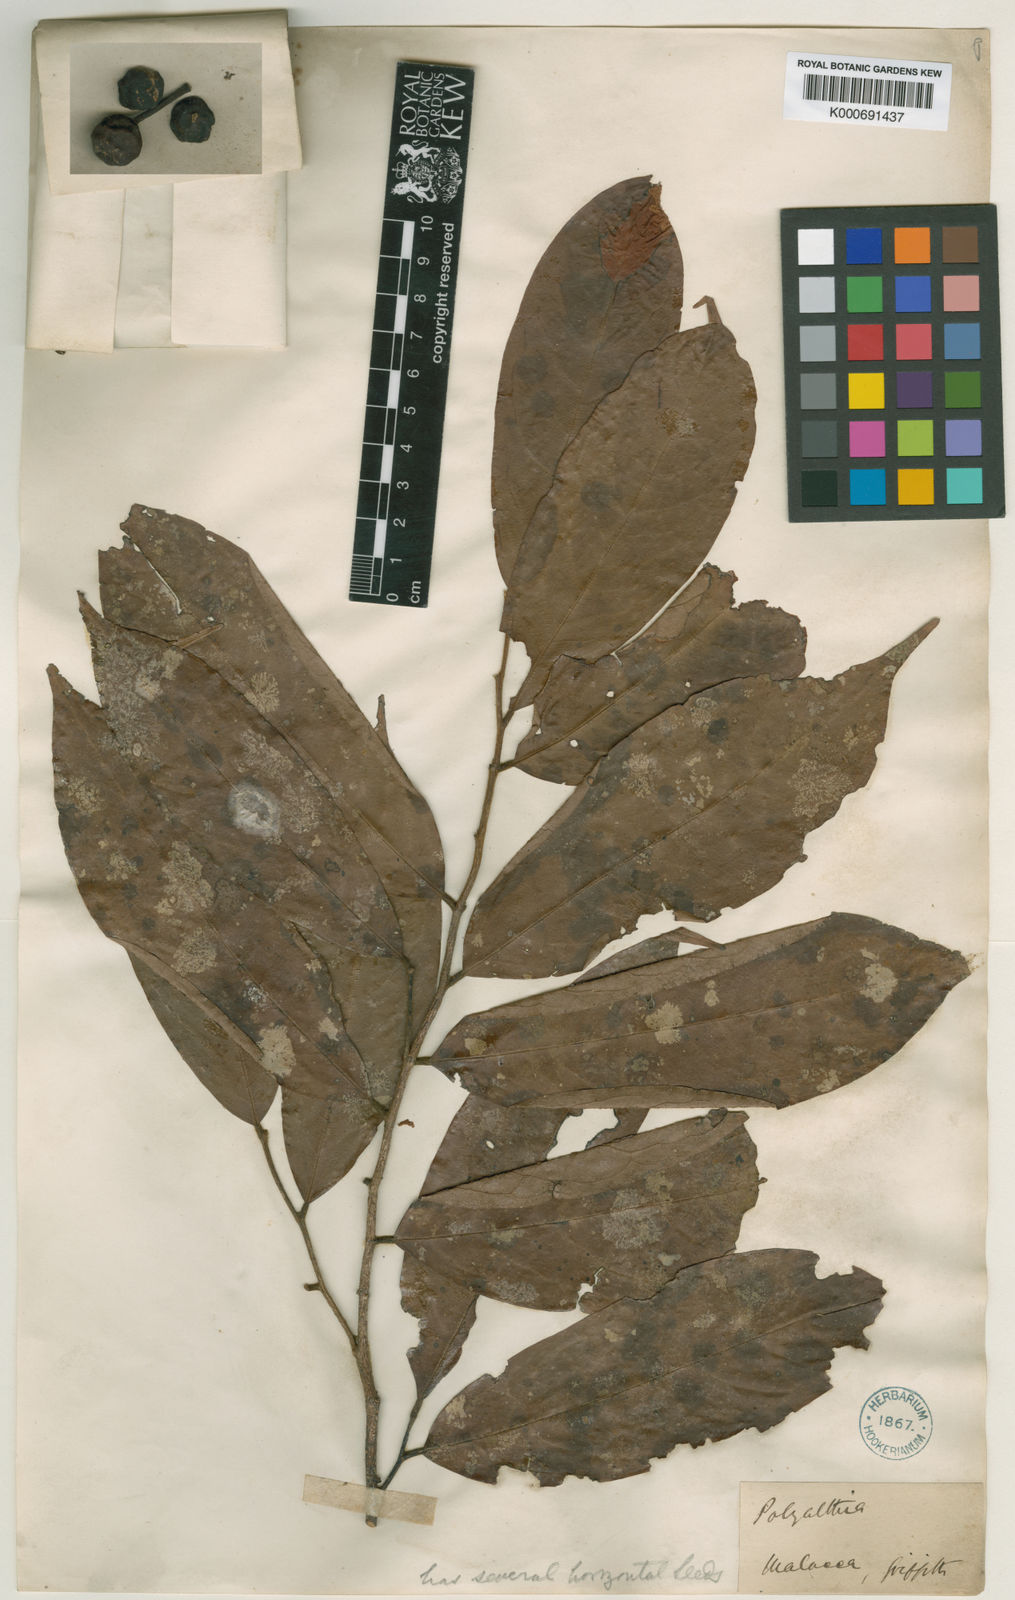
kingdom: Plantae
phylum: Tracheophyta
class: Magnoliopsida
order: Magnoliales
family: Annonaceae
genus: Polyalthia
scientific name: Polyalthia obliqua
